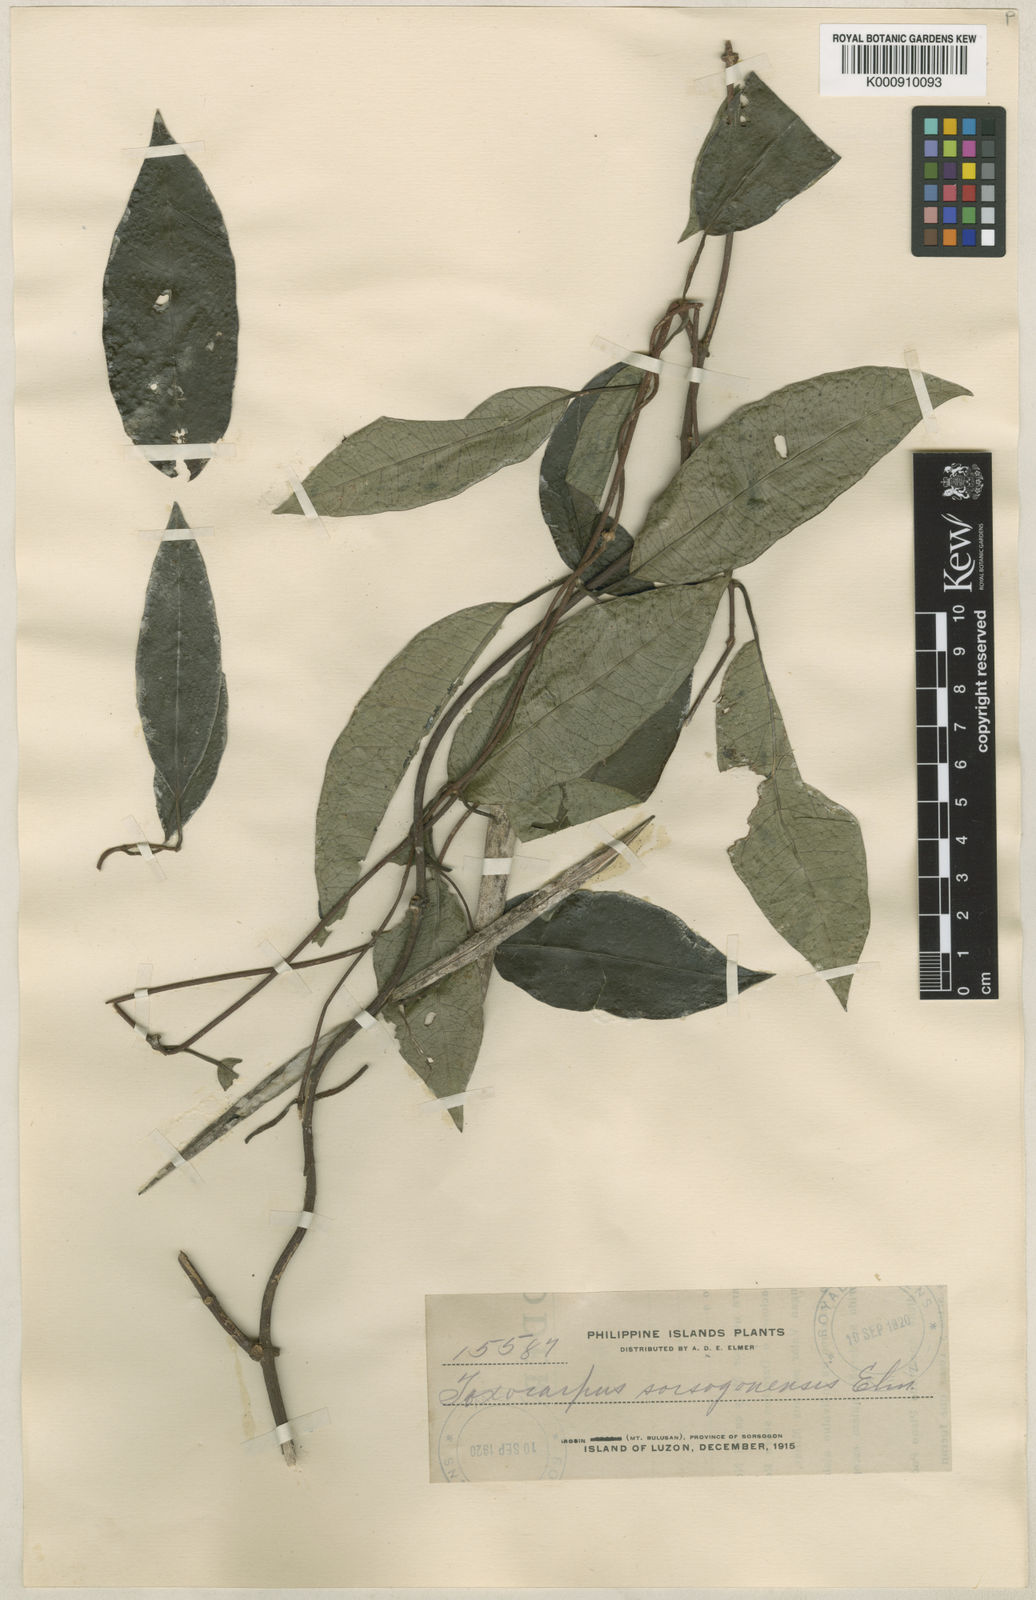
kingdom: Plantae
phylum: Tracheophyta
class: Magnoliopsida
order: Gentianales
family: Apocynaceae
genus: Toxocarpus
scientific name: Toxocarpus
